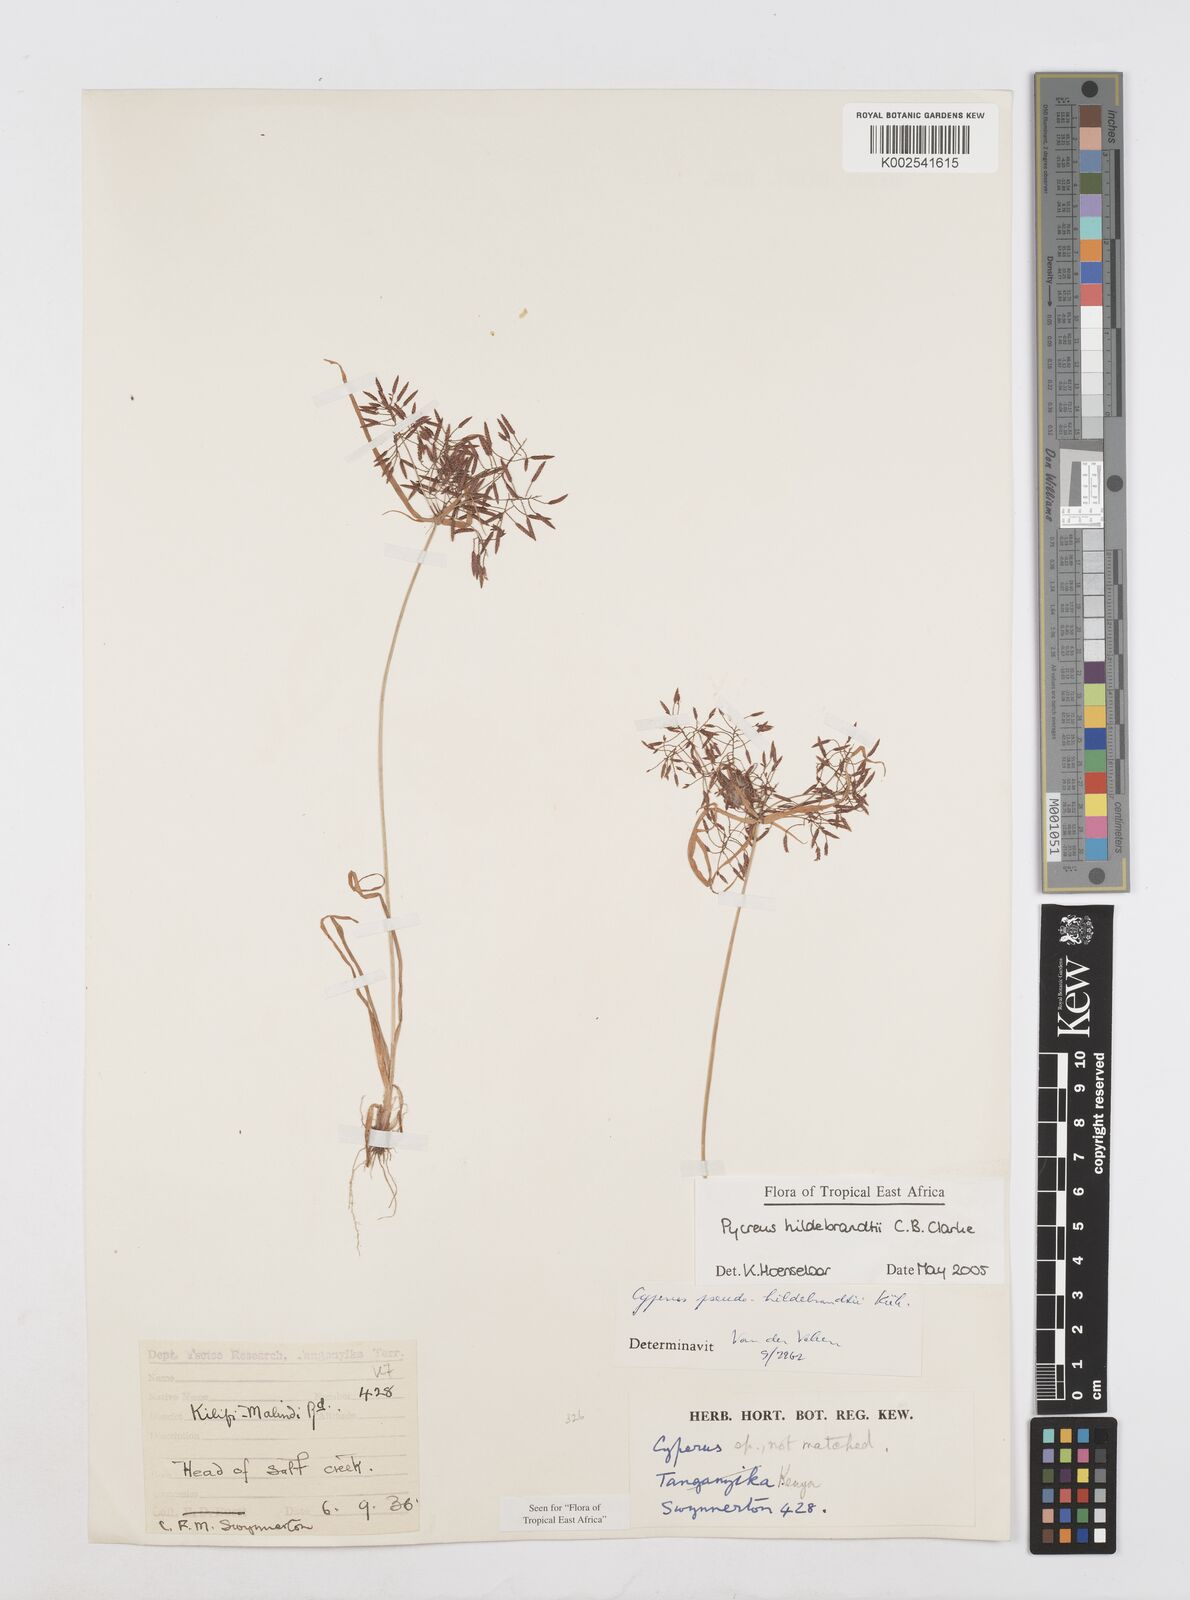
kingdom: Plantae
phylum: Tracheophyta
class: Liliopsida
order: Poales
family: Cyperaceae
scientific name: Cyperaceae
